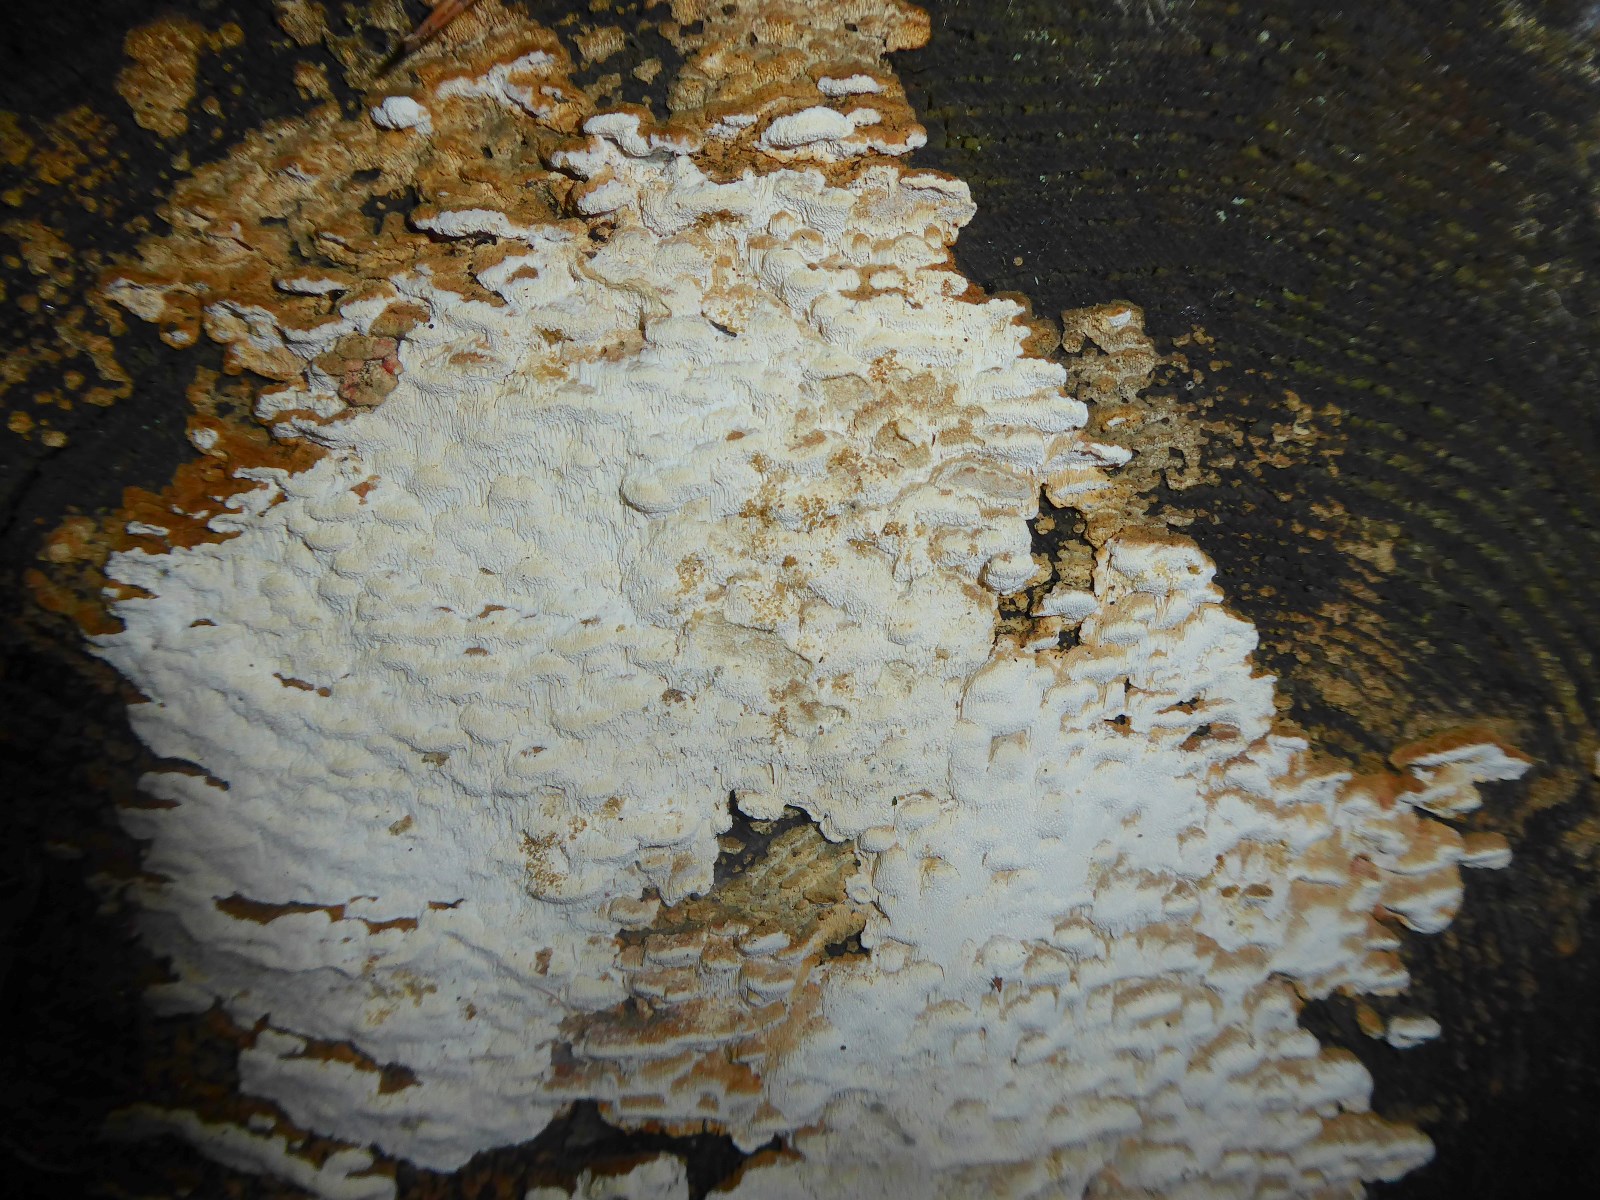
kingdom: Fungi
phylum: Basidiomycota
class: Agaricomycetes
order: Polyporales
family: Fomitopsidaceae
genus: Neoantrodia
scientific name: Neoantrodia serialis
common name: række-sejporesvamp
